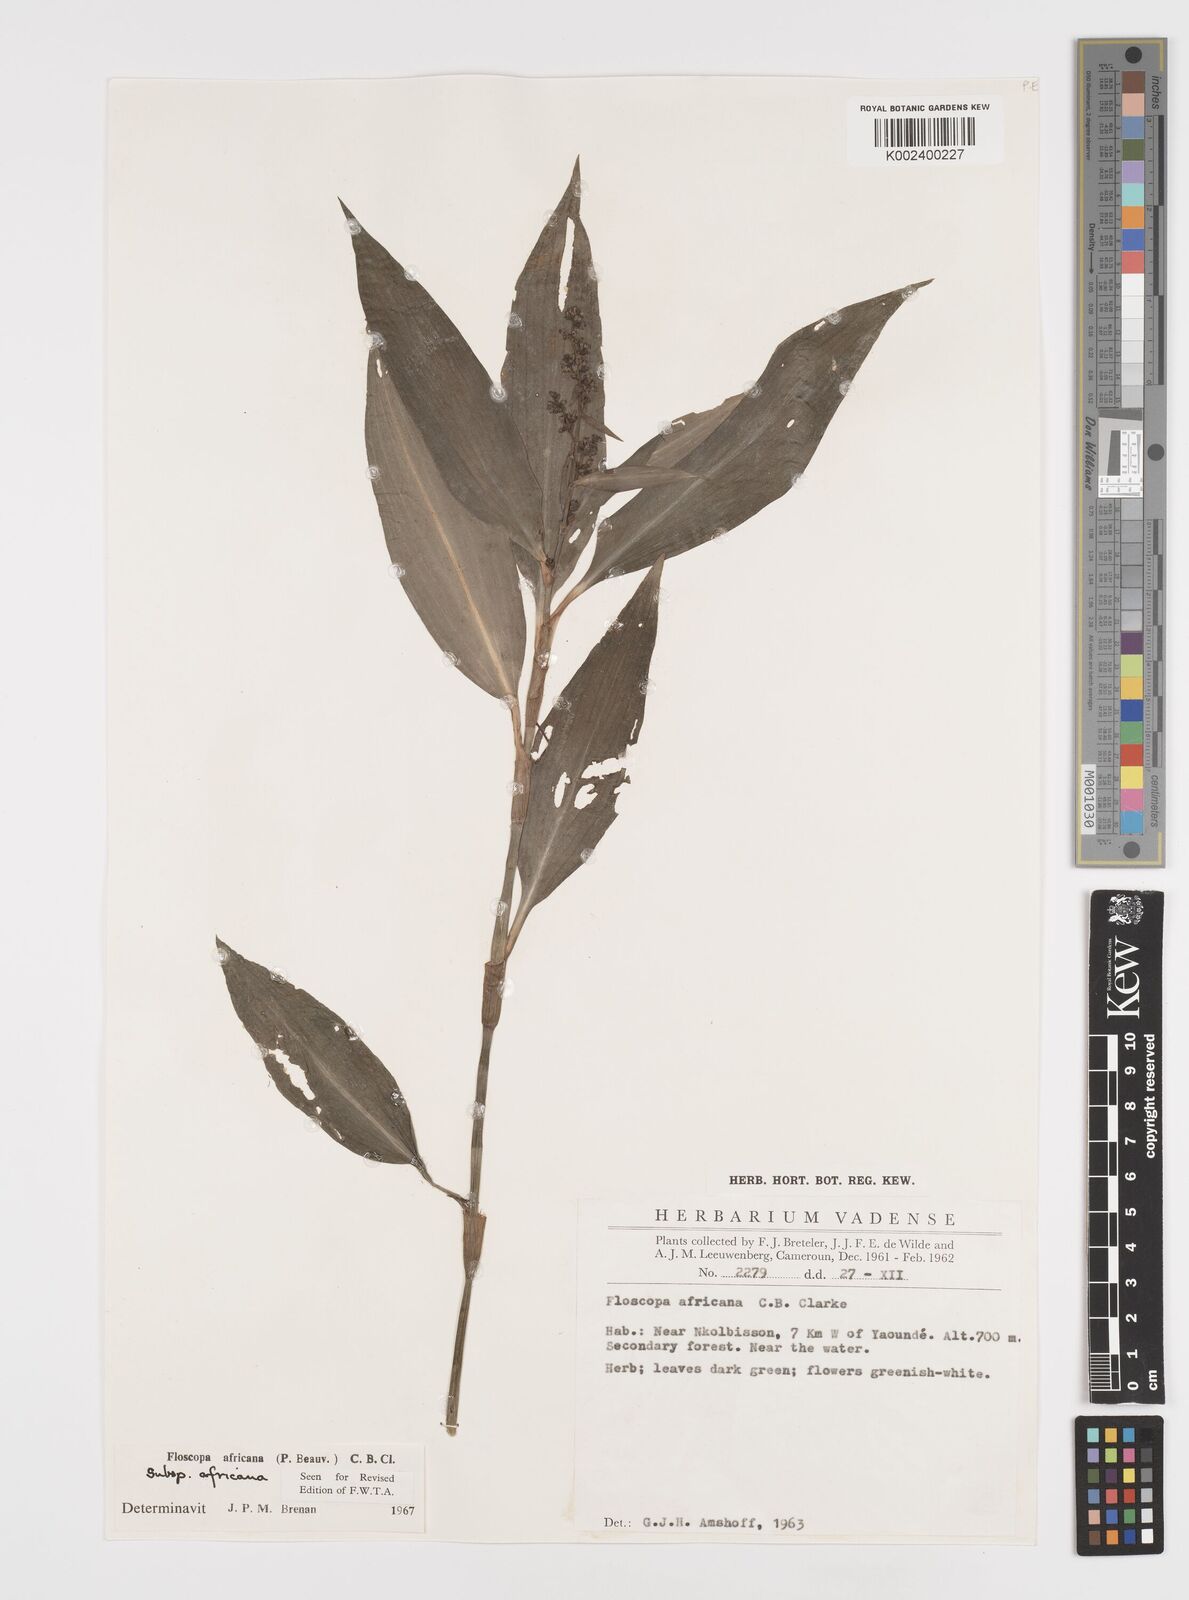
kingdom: Plantae
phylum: Tracheophyta
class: Liliopsida
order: Commelinales
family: Commelinaceae
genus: Floscopa
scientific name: Floscopa africana
